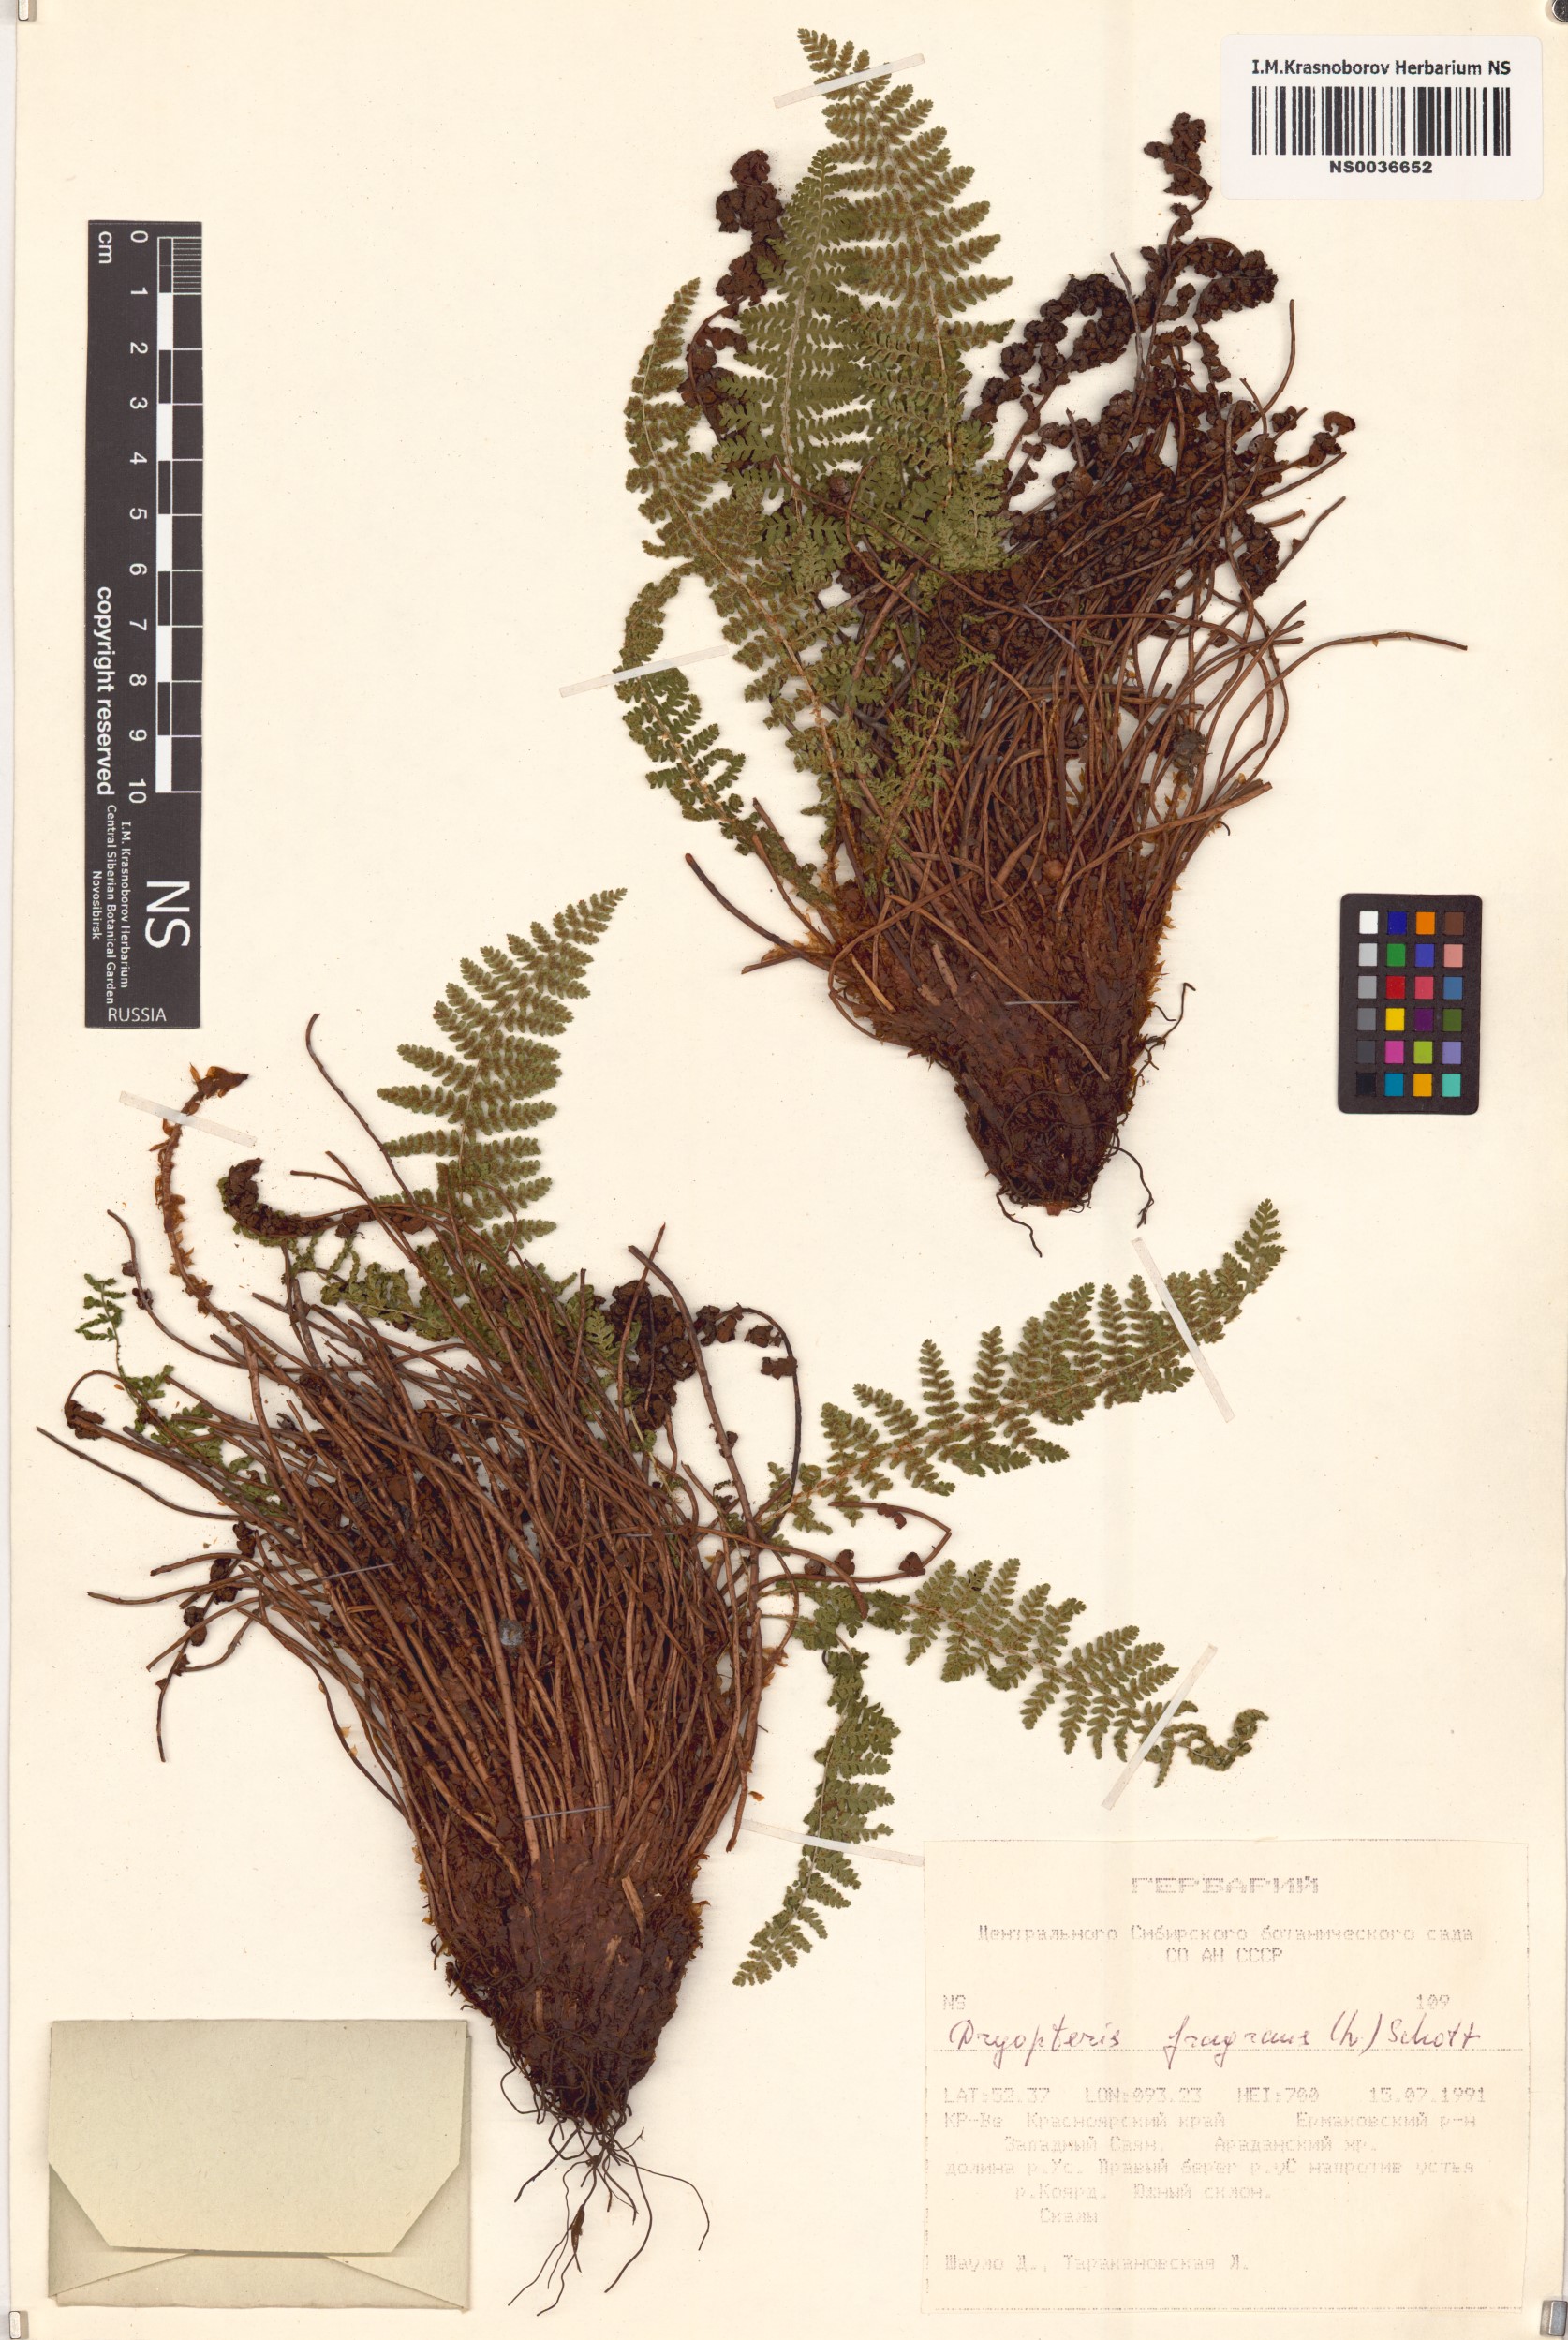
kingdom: Plantae
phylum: Tracheophyta
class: Polypodiopsida
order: Polypodiales
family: Dryopteridaceae
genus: Dryopteris
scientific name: Dryopteris fragrans
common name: Fragrant wood fern
